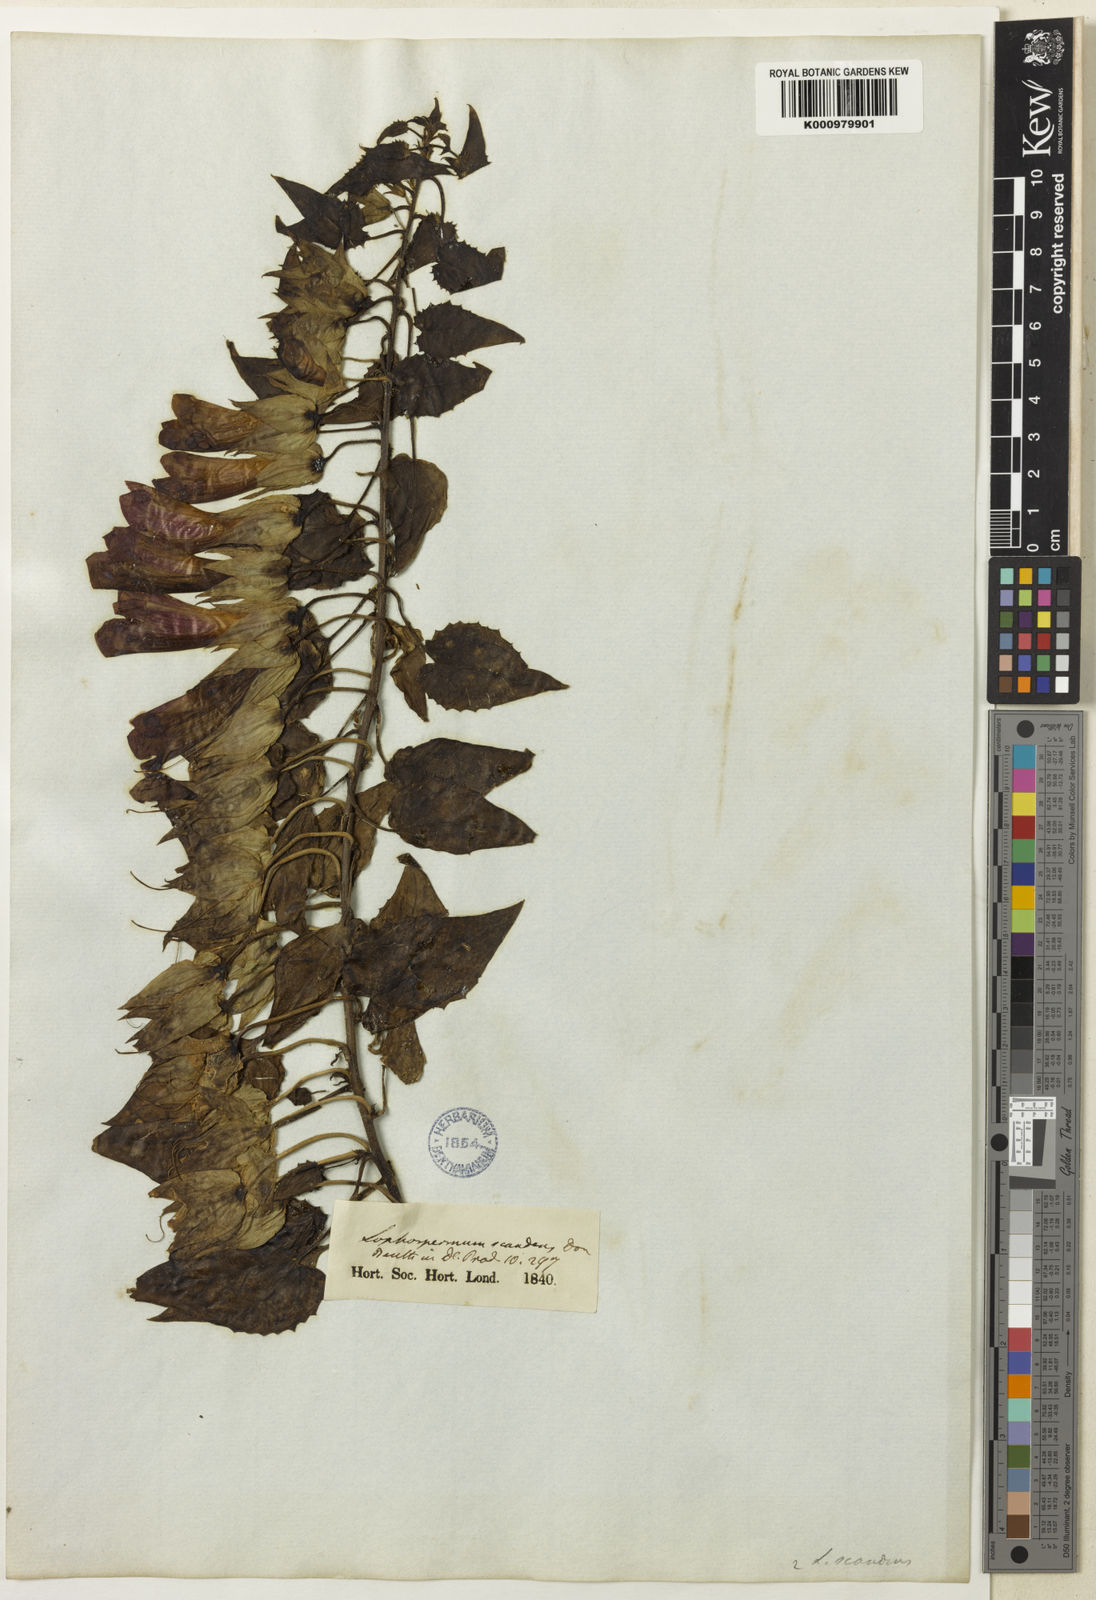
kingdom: Plantae
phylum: Tracheophyta
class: Magnoliopsida
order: Lamiales
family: Plantaginaceae
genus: Maurandya
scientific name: Maurandya
